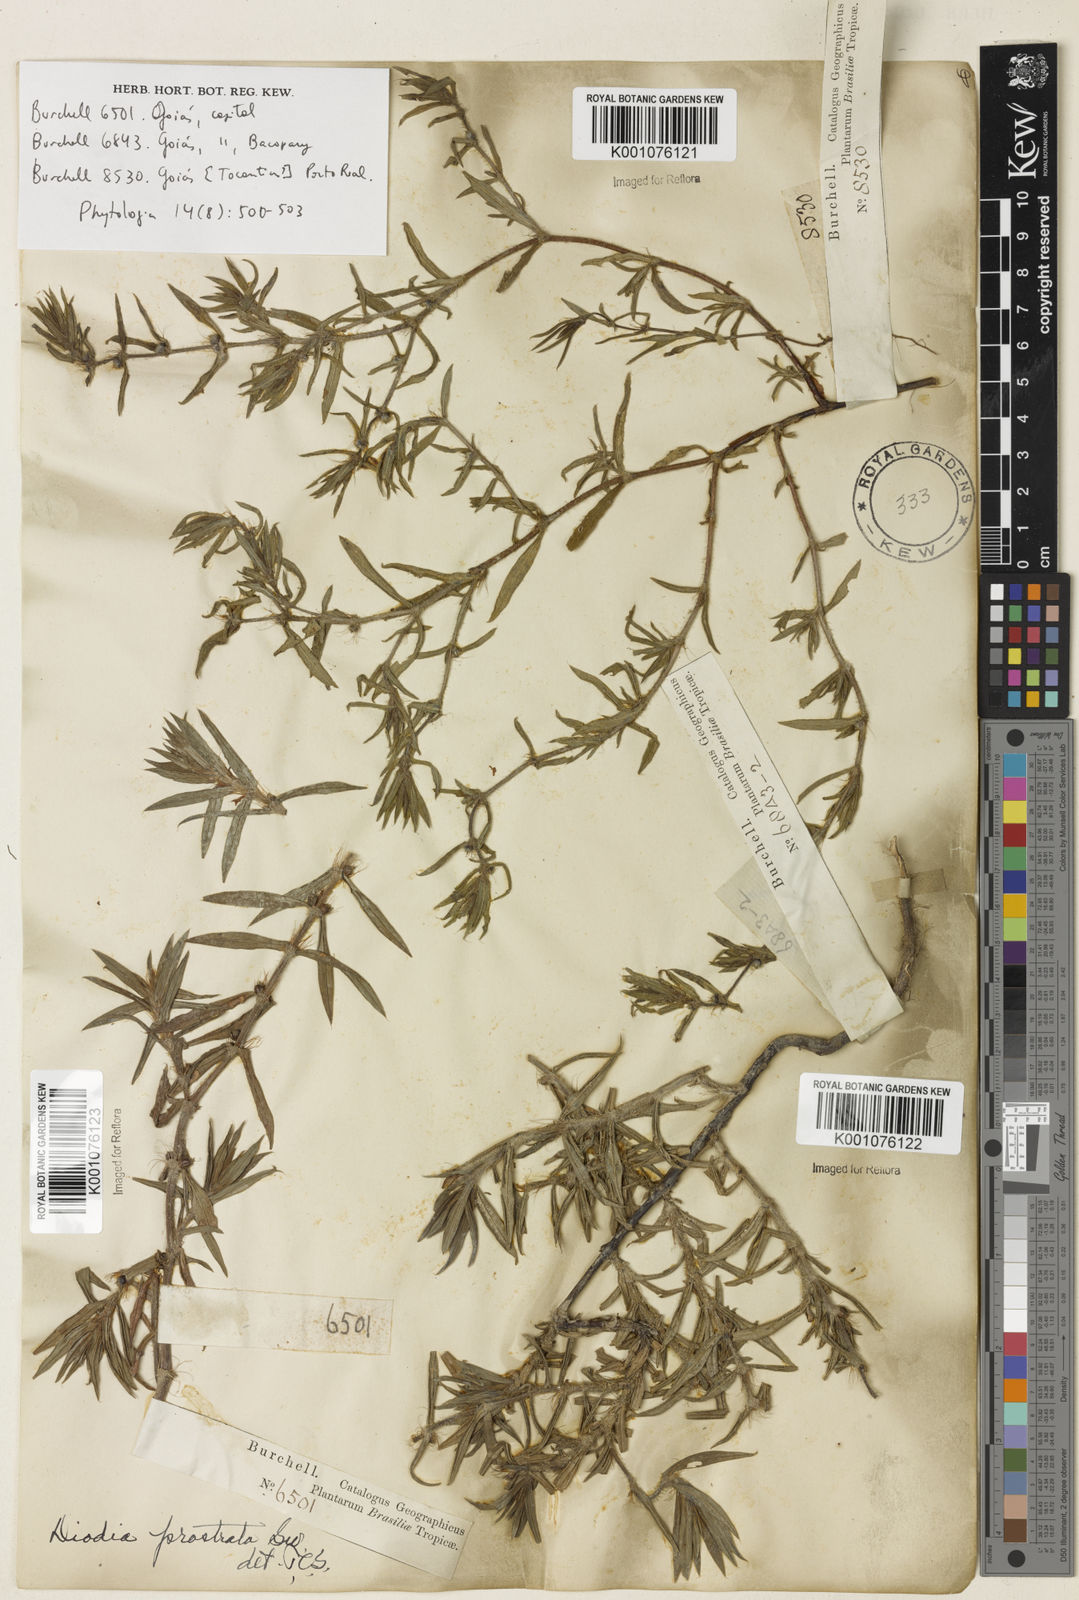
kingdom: Plantae
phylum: Tracheophyta
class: Magnoliopsida
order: Gentianales
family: Rubiaceae
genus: Hexasepalum
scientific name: Hexasepalum teres
